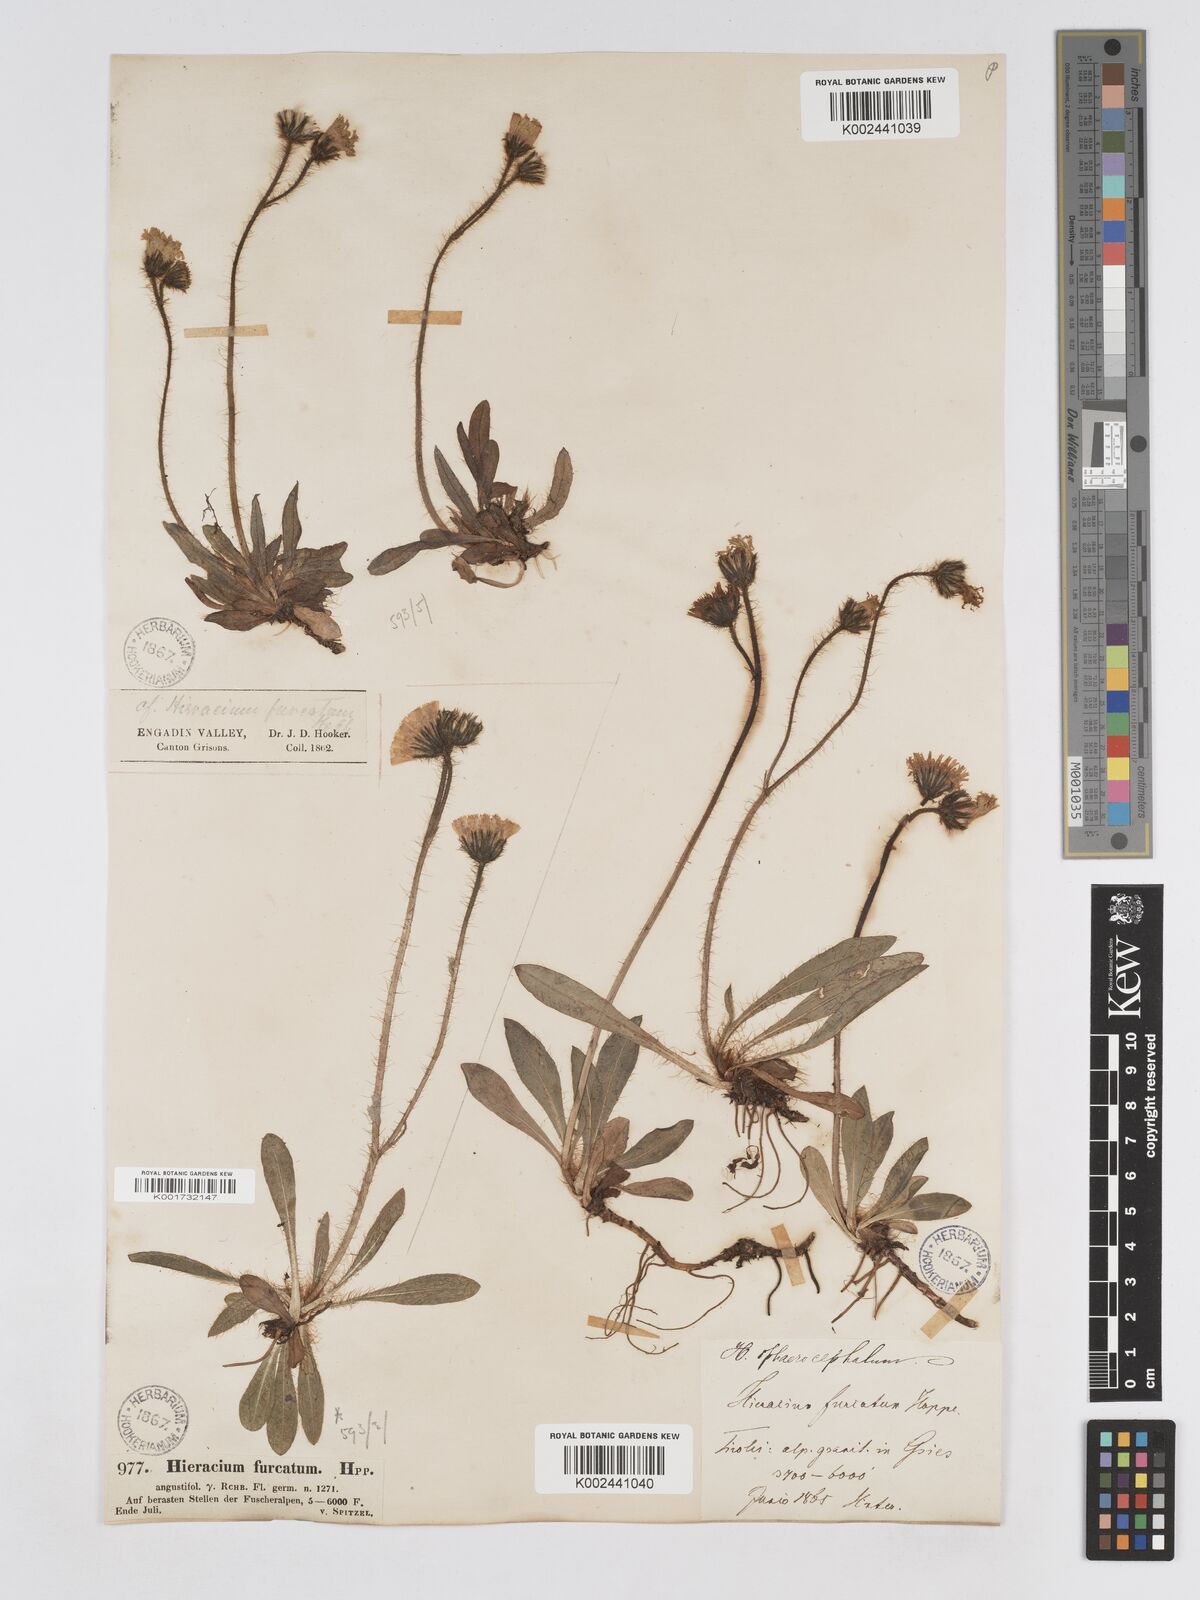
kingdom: Plantae
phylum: Tracheophyta
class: Magnoliopsida
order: Asterales
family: Asteraceae
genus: Pilosella
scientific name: Pilosella sphaerocephala
